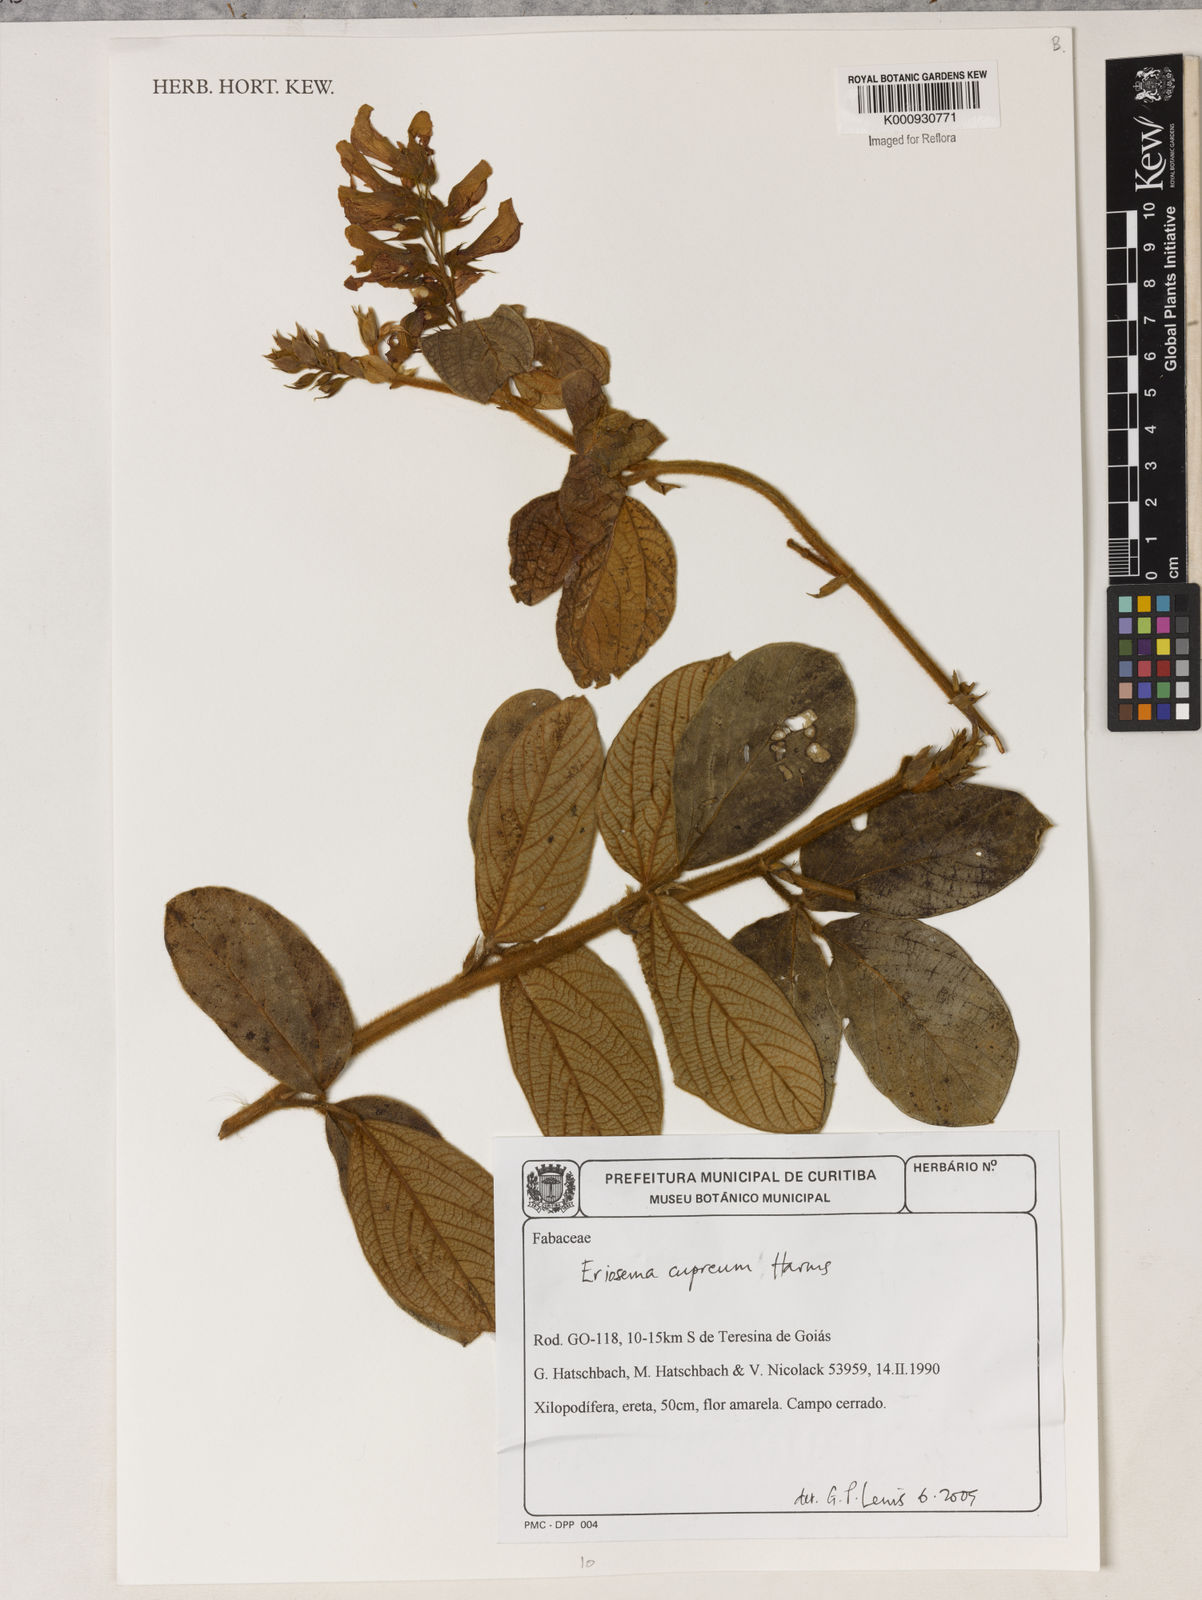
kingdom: Plantae
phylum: Tracheophyta
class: Magnoliopsida
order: Fabales
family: Fabaceae
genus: Eriosema
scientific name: Eriosema cupreum
